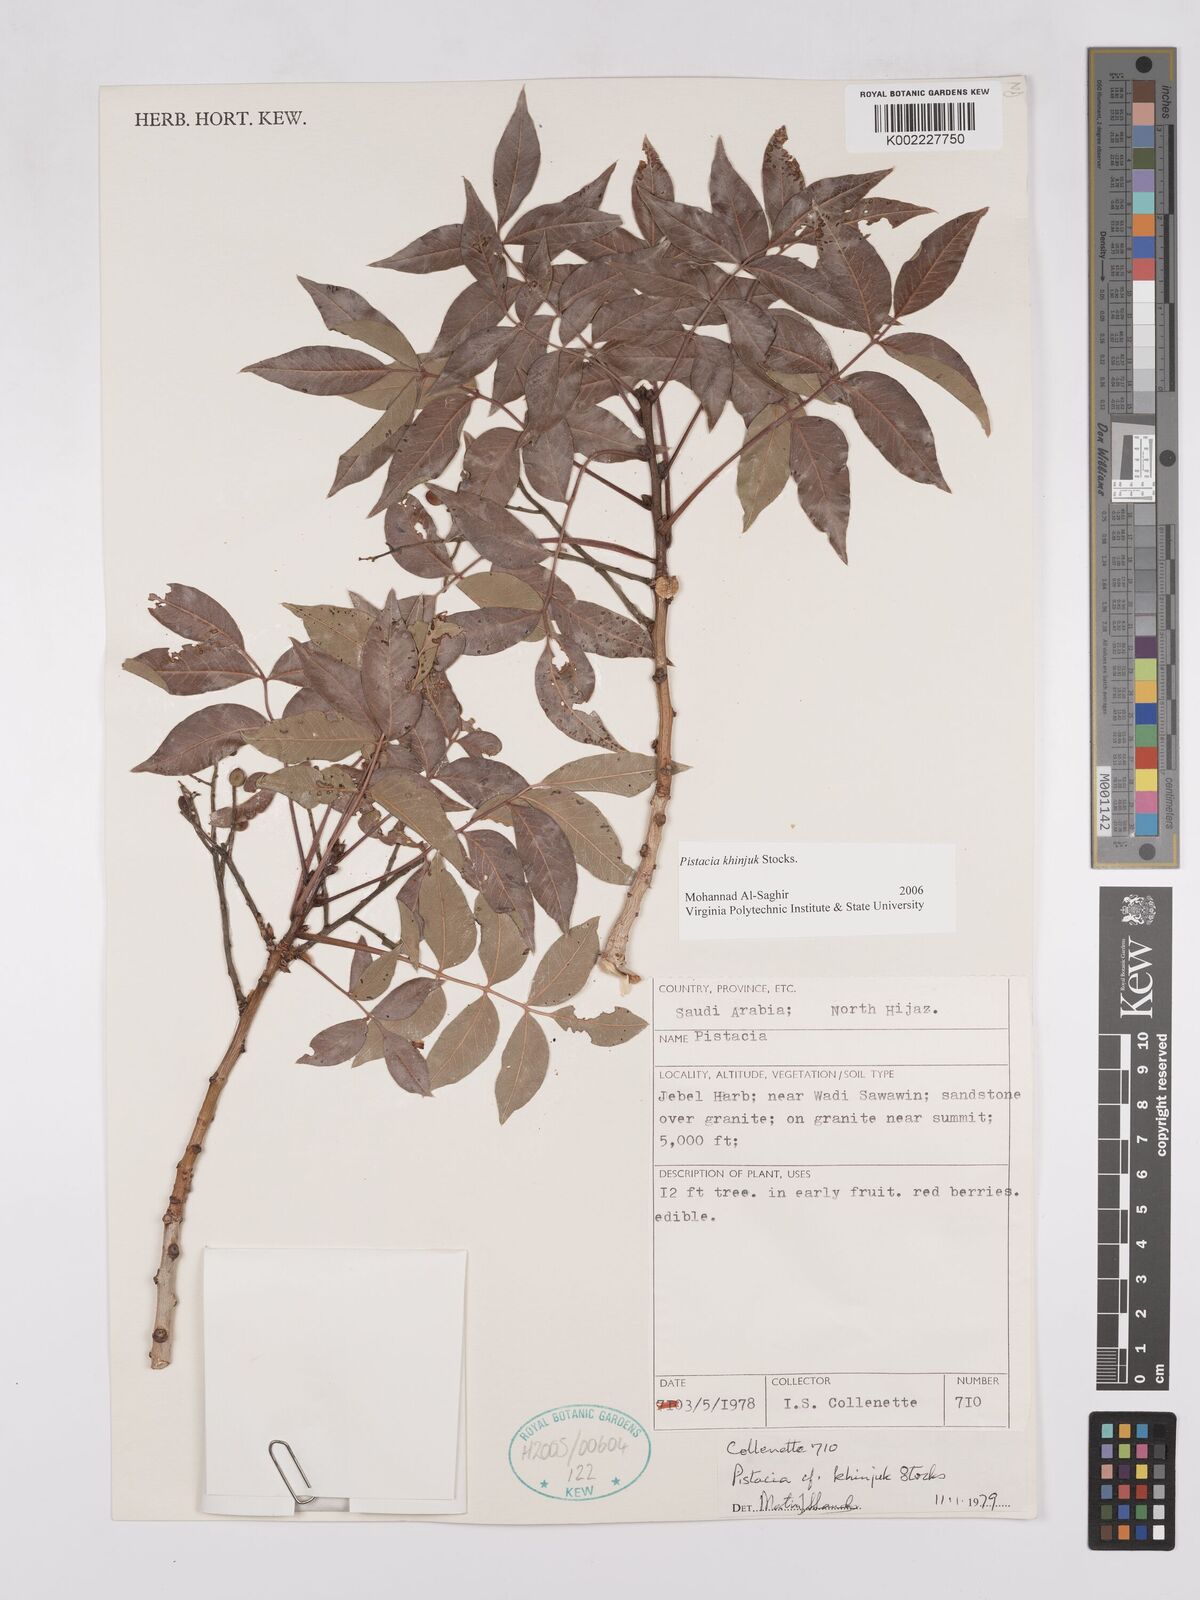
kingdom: Plantae
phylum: Tracheophyta
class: Magnoliopsida
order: Sapindales
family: Anacardiaceae
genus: Pistacia
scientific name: Pistacia khinjuk
